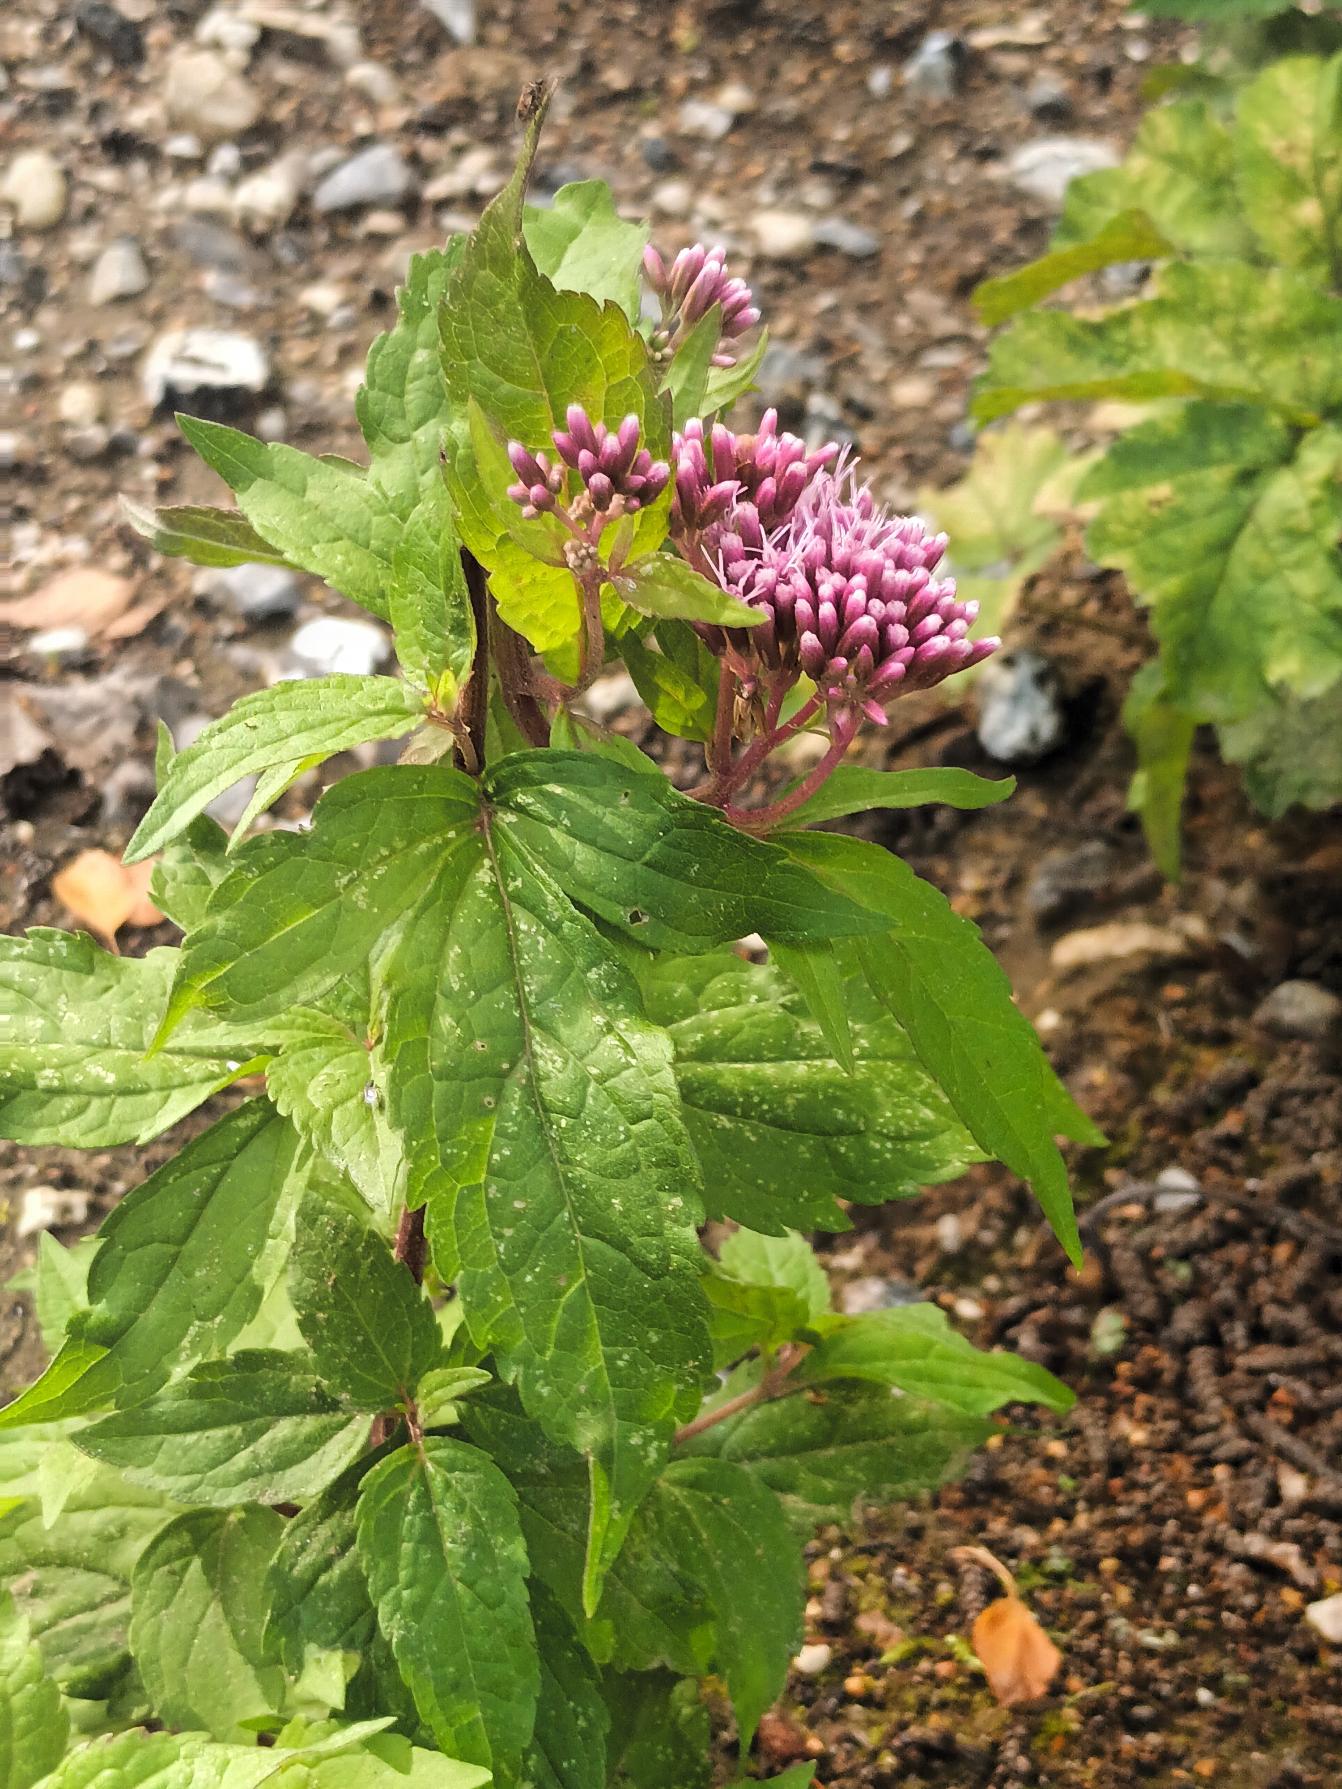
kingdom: Plantae
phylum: Tracheophyta
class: Magnoliopsida
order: Asterales
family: Asteraceae
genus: Eupatorium
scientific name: Eupatorium cannabinum
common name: Hjortetrøst
